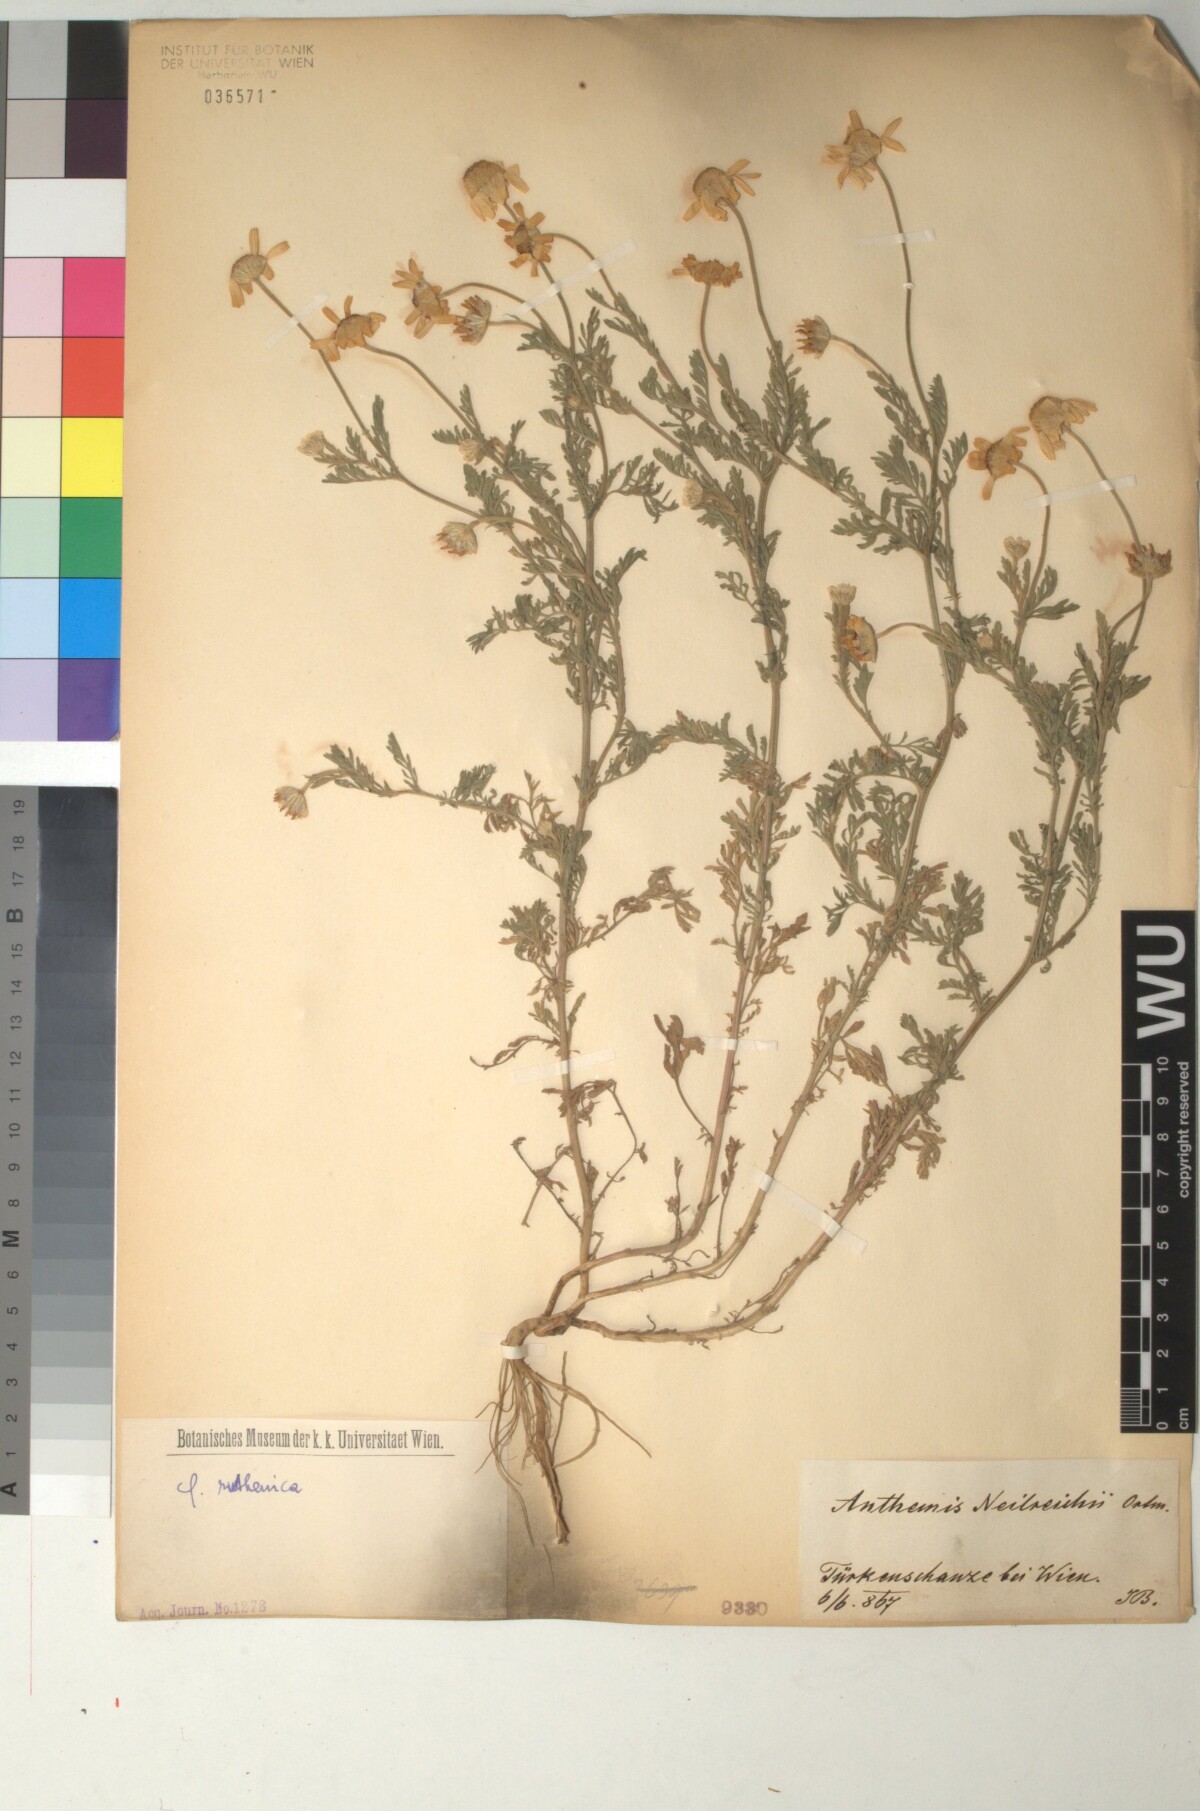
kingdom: Plantae
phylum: Tracheophyta
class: Magnoliopsida
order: Asterales
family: Asteraceae
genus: Anthemis
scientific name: Anthemis ruthenica
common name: Eastern chamomile
